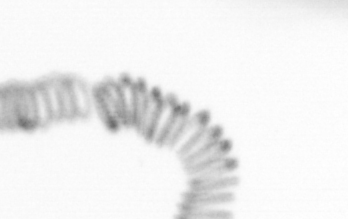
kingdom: Animalia
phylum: Annelida
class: Polychaeta
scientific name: Polychaeta
